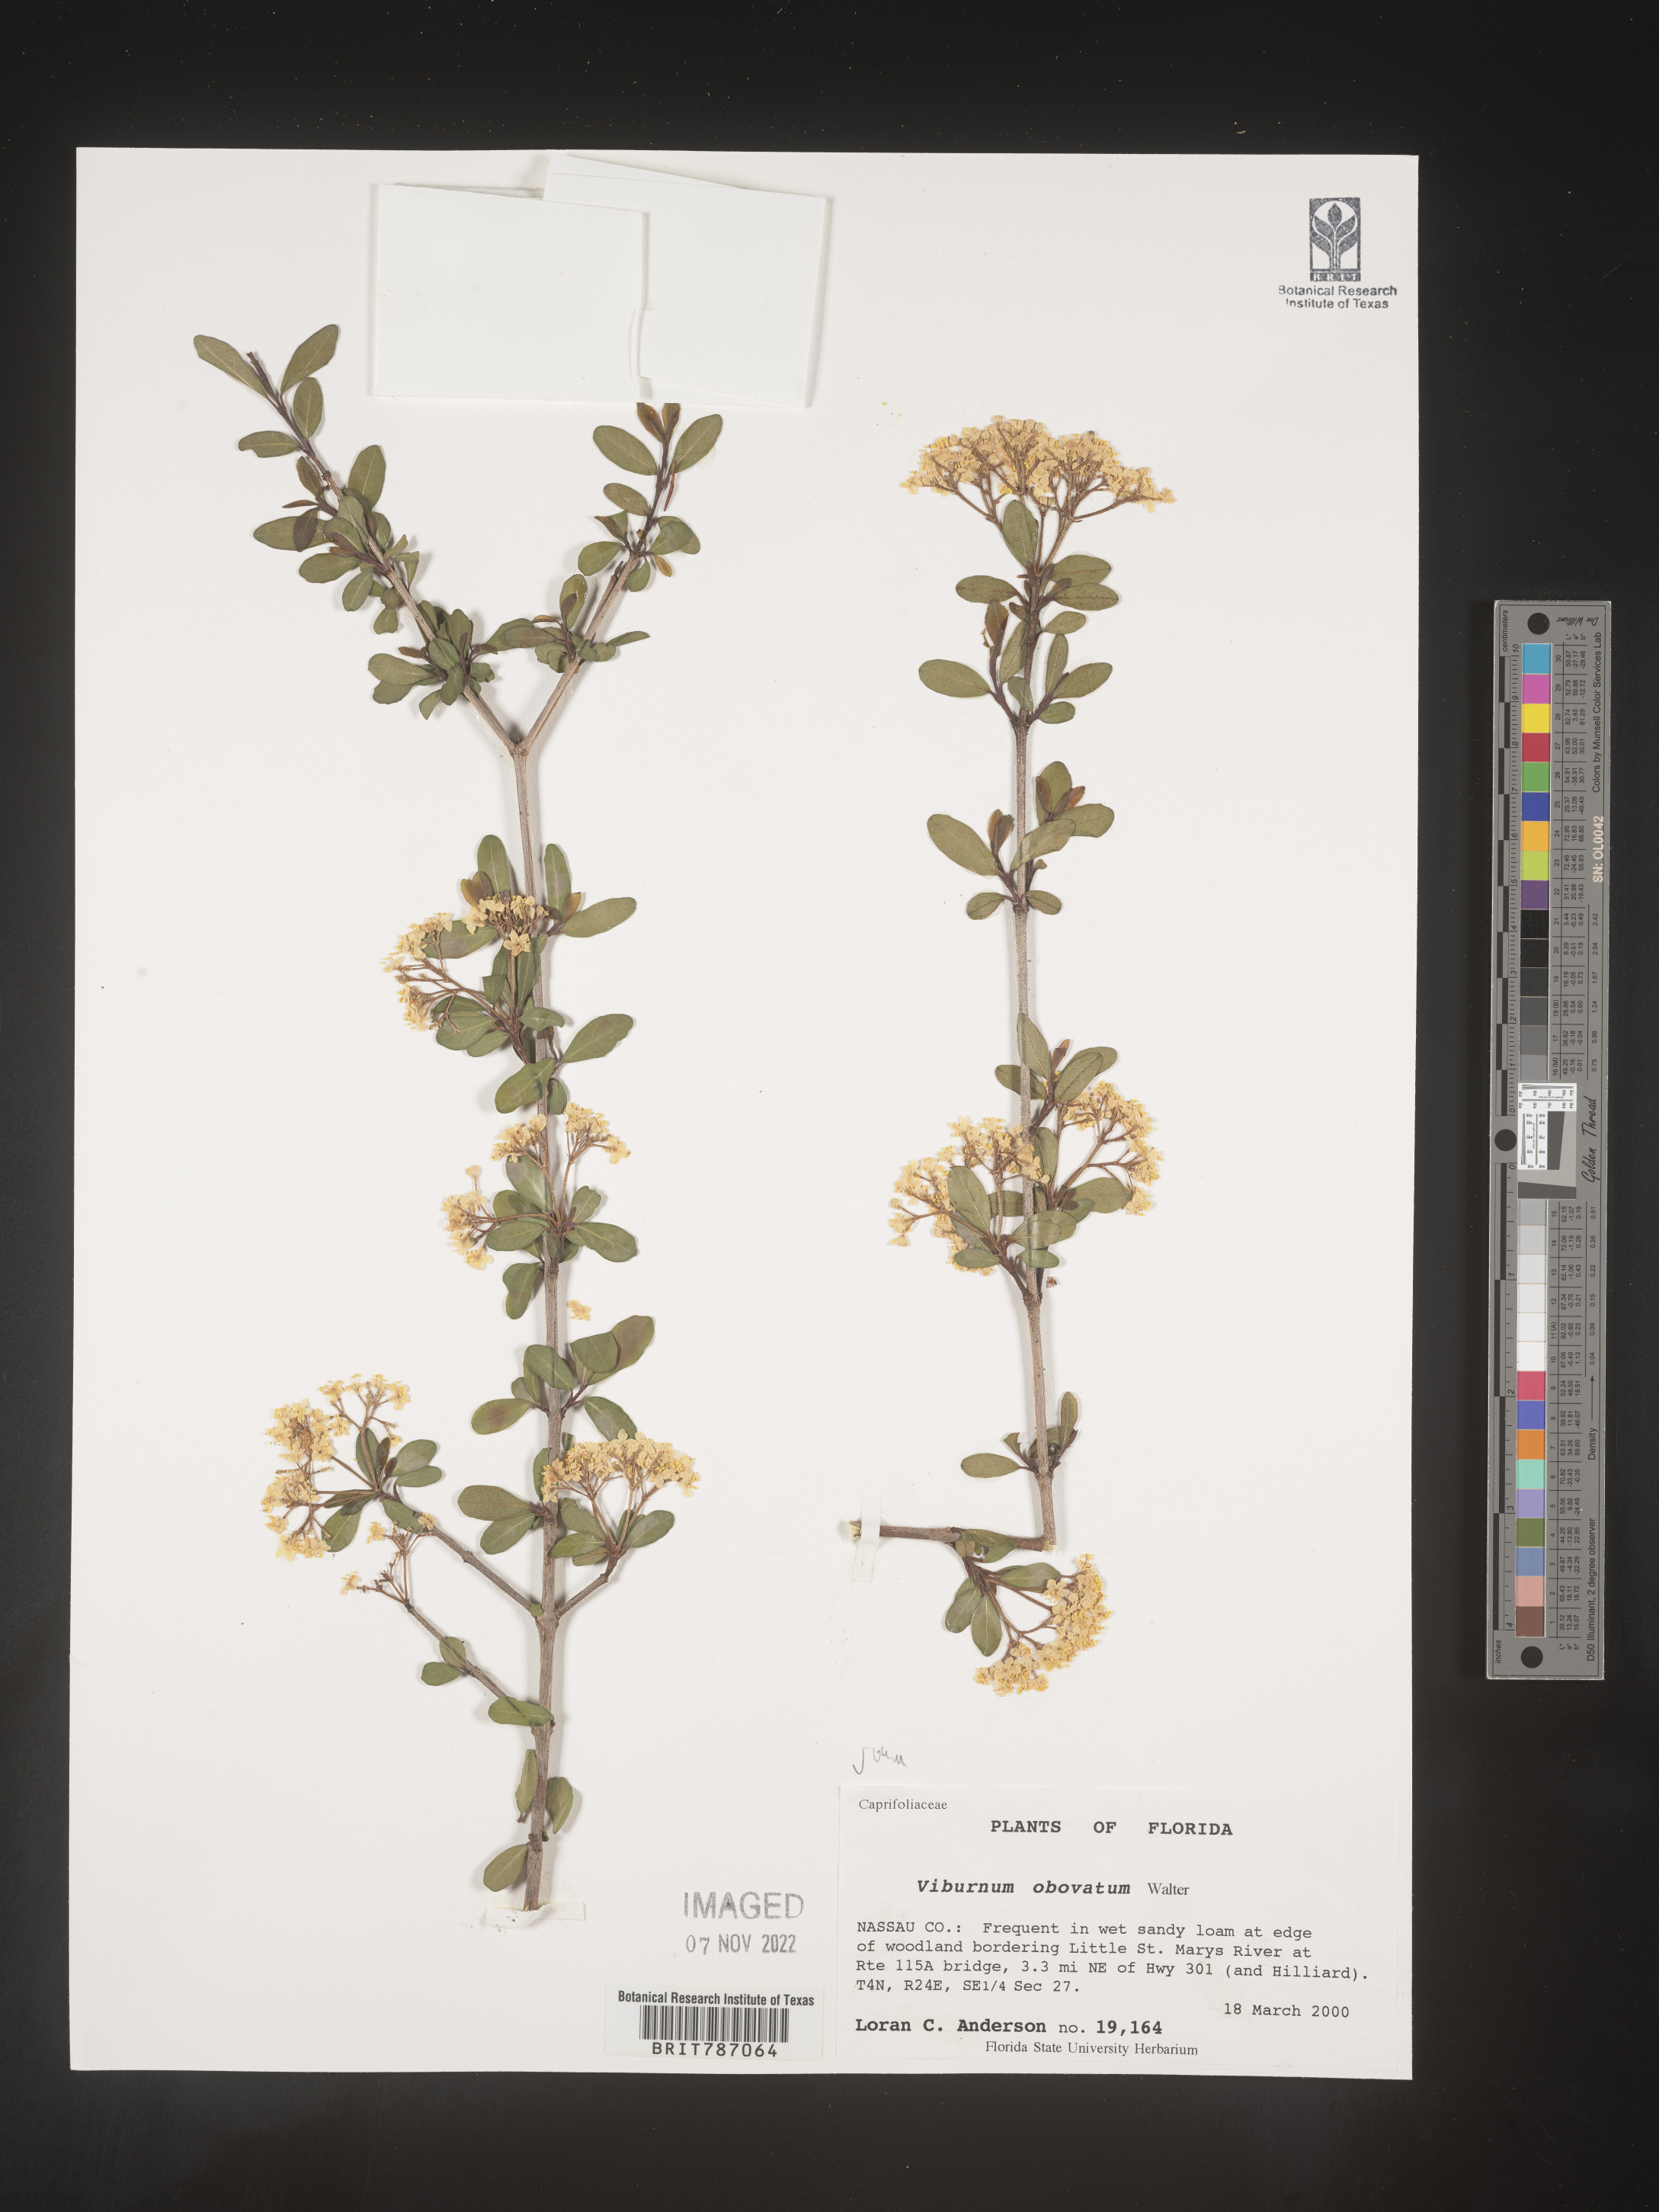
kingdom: Plantae
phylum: Tracheophyta
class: Magnoliopsida
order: Dipsacales
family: Viburnaceae
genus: Viburnum
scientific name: Viburnum obovatum
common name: Walter's viburnum
